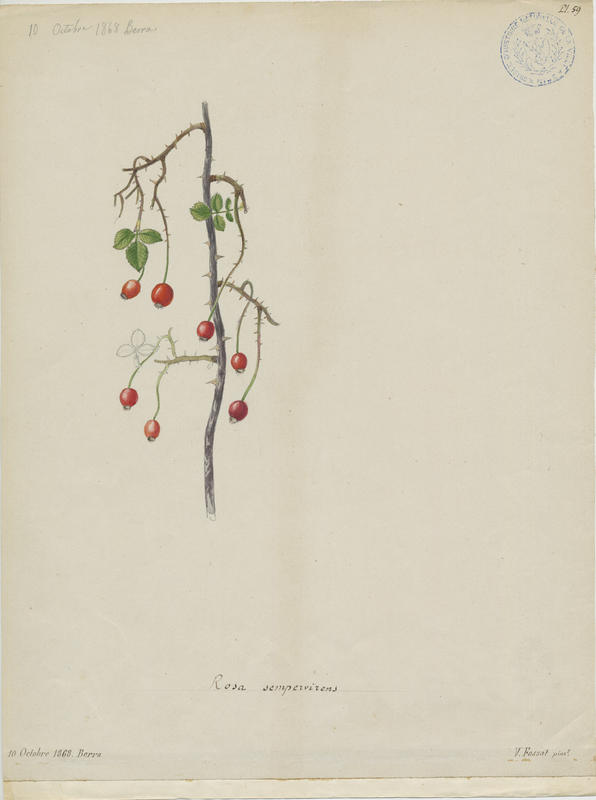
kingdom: Plantae
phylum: Tracheophyta
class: Magnoliopsida
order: Rosales
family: Rosaceae
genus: Rosa
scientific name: Rosa sempervirens
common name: Evergreen rose
